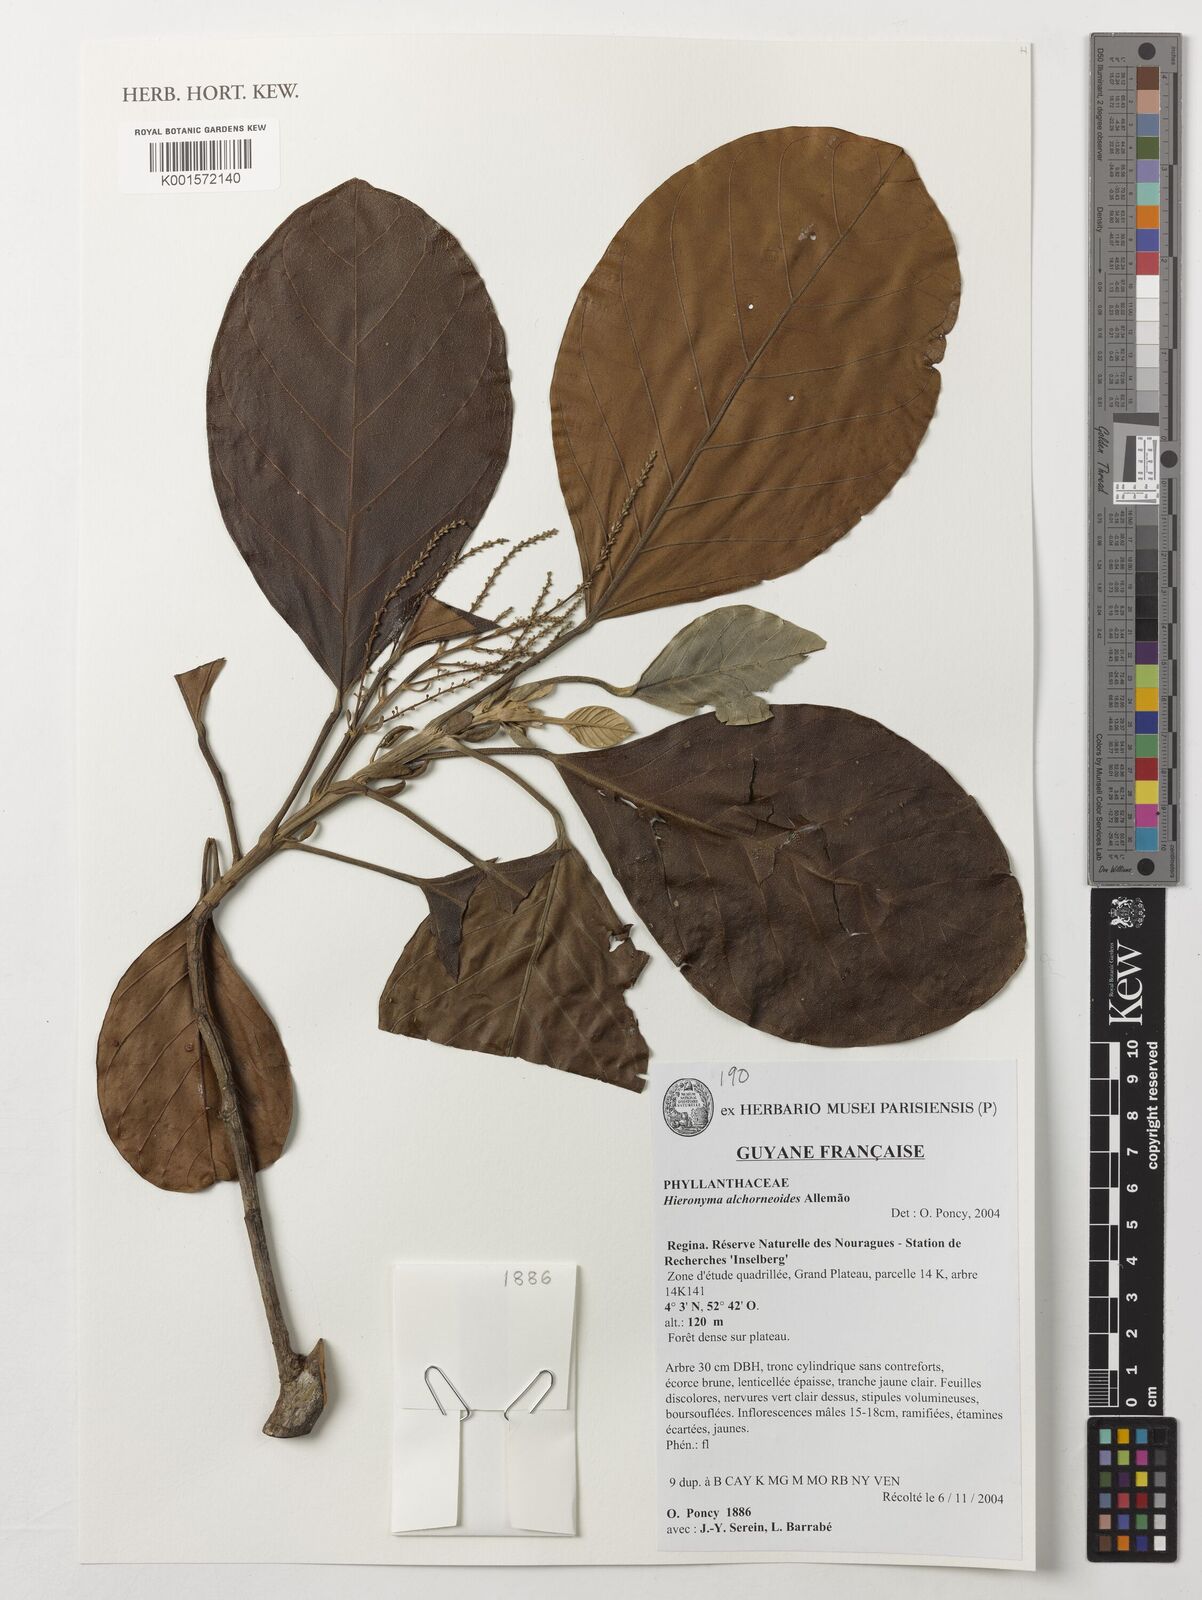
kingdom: Plantae
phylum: Tracheophyta
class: Magnoliopsida
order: Malpighiales
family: Phyllanthaceae
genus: Hieronyma
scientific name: Hieronyma alchorneoides
